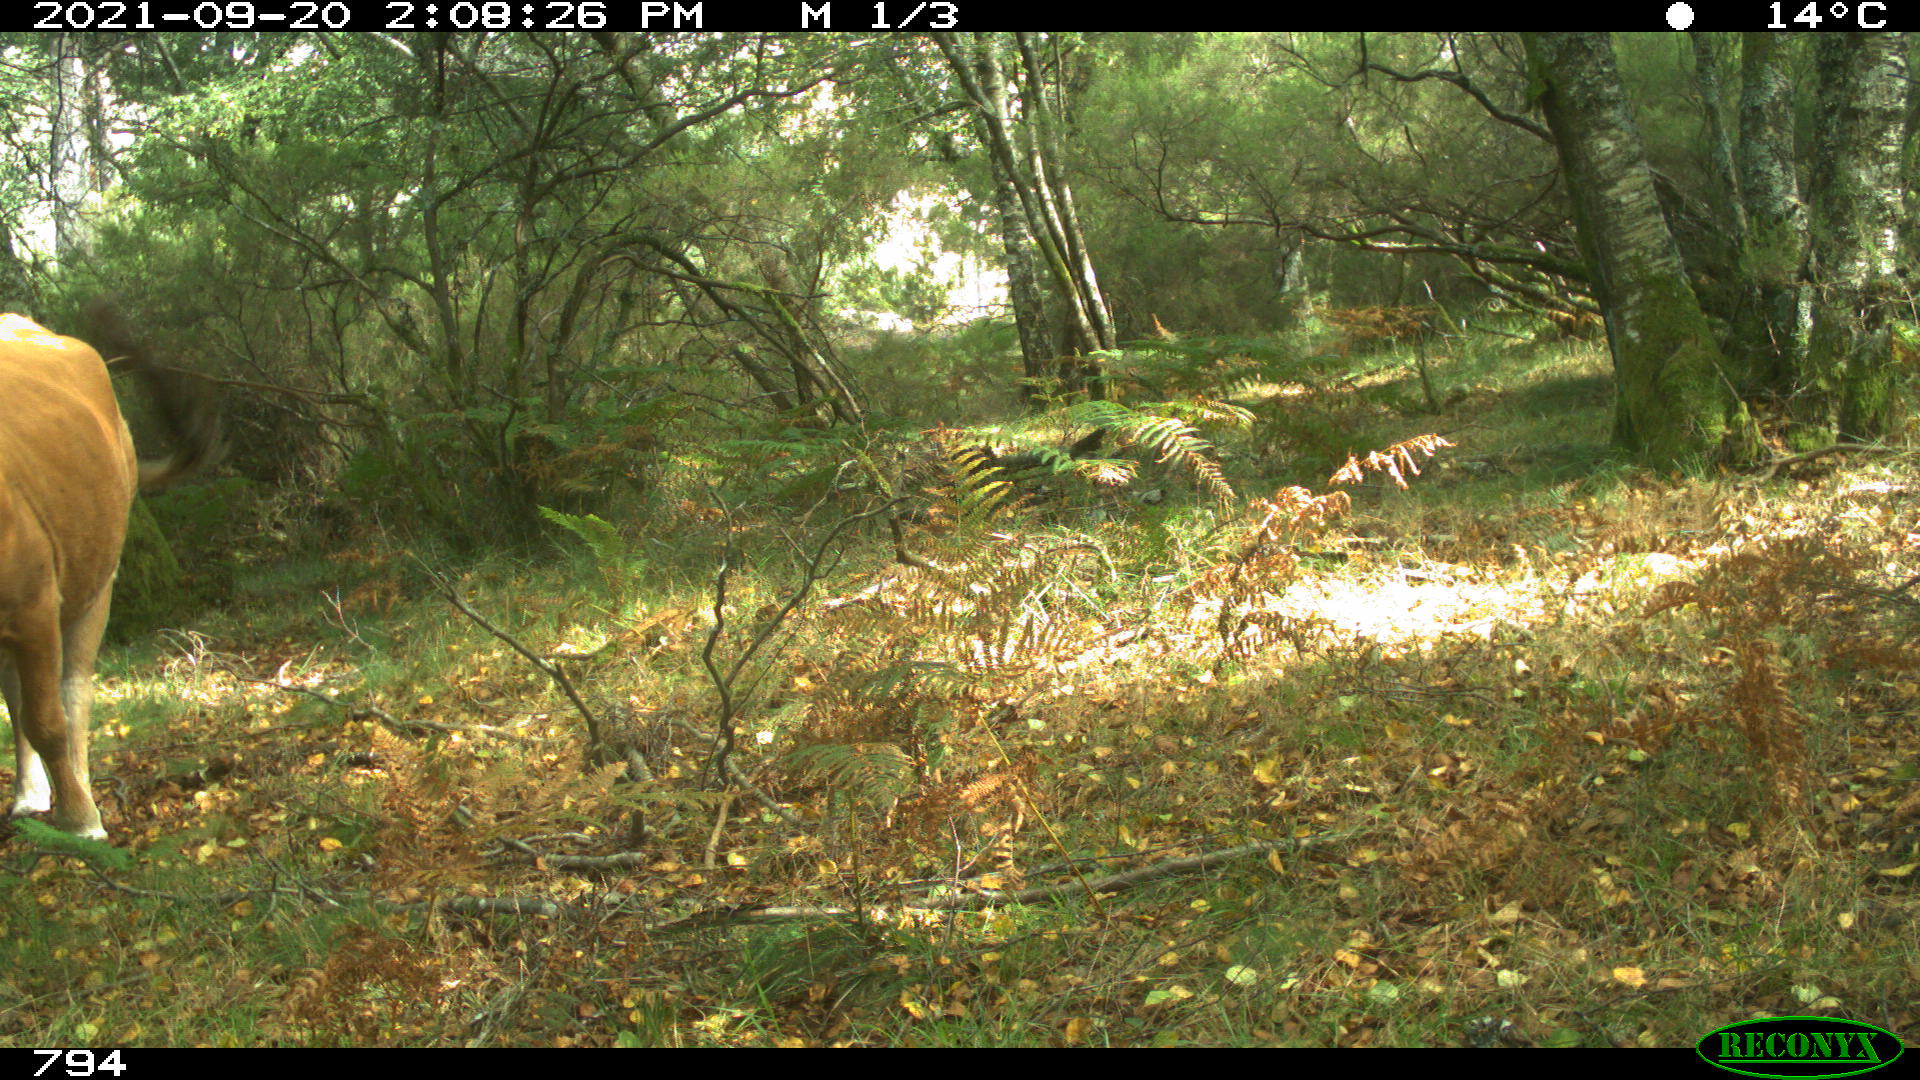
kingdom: Animalia
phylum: Chordata
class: Mammalia
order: Artiodactyla
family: Bovidae
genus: Bos
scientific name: Bos taurus
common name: Domesticated cattle
